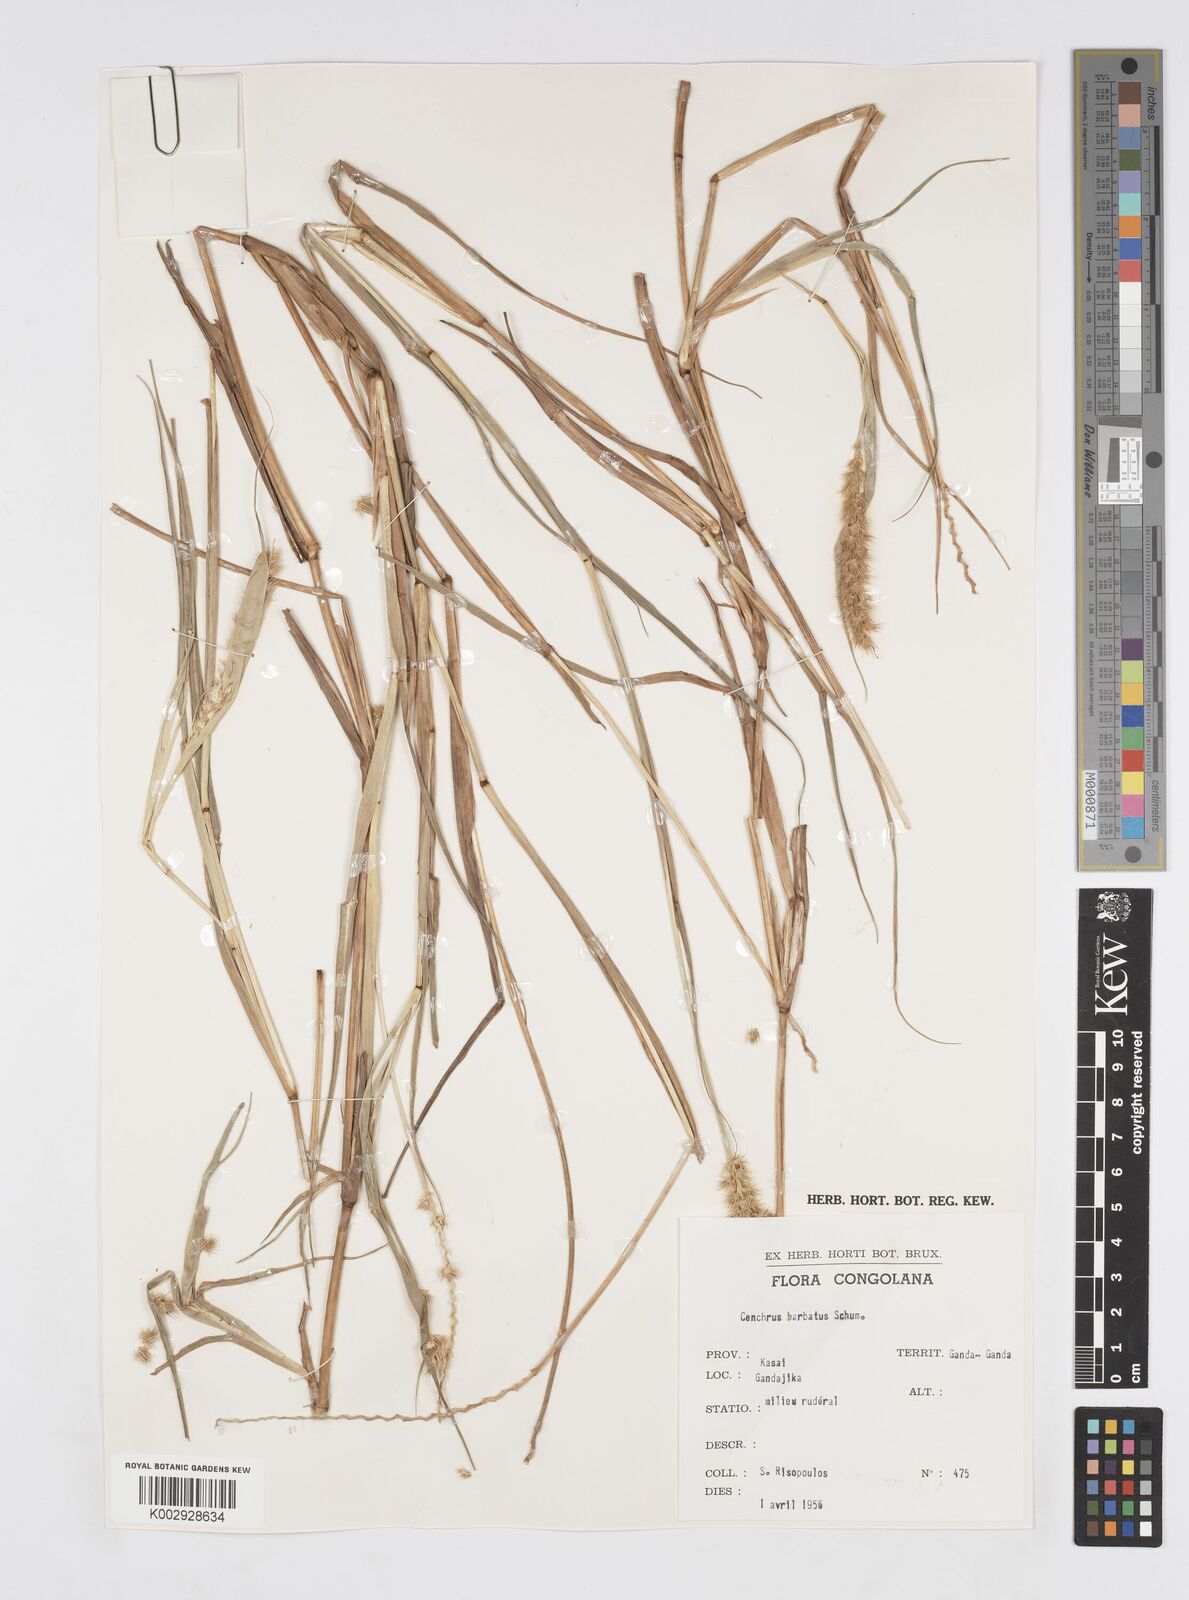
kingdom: Plantae
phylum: Tracheophyta
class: Liliopsida
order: Poales
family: Poaceae
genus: Cenchrus
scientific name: Cenchrus biflorus
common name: Indian sandbur
